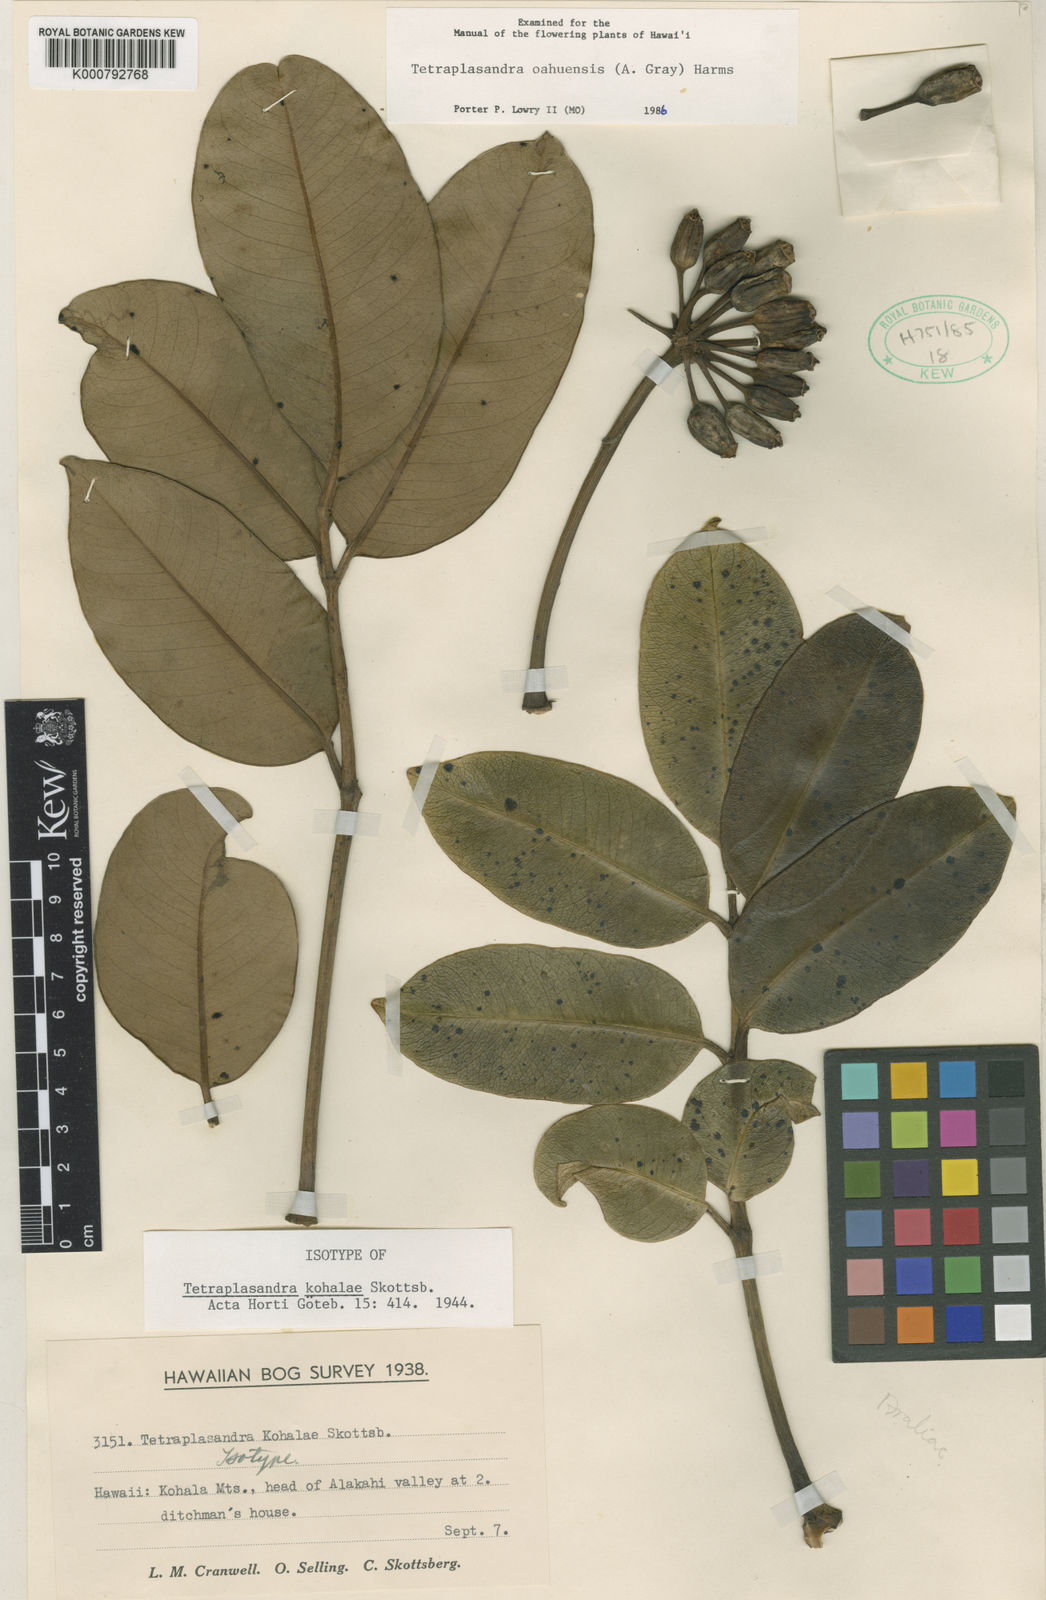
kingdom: Plantae
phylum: Tracheophyta
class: Magnoliopsida
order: Apiales
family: Araliaceae
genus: Polyscias
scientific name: Polyscias oahuensis
